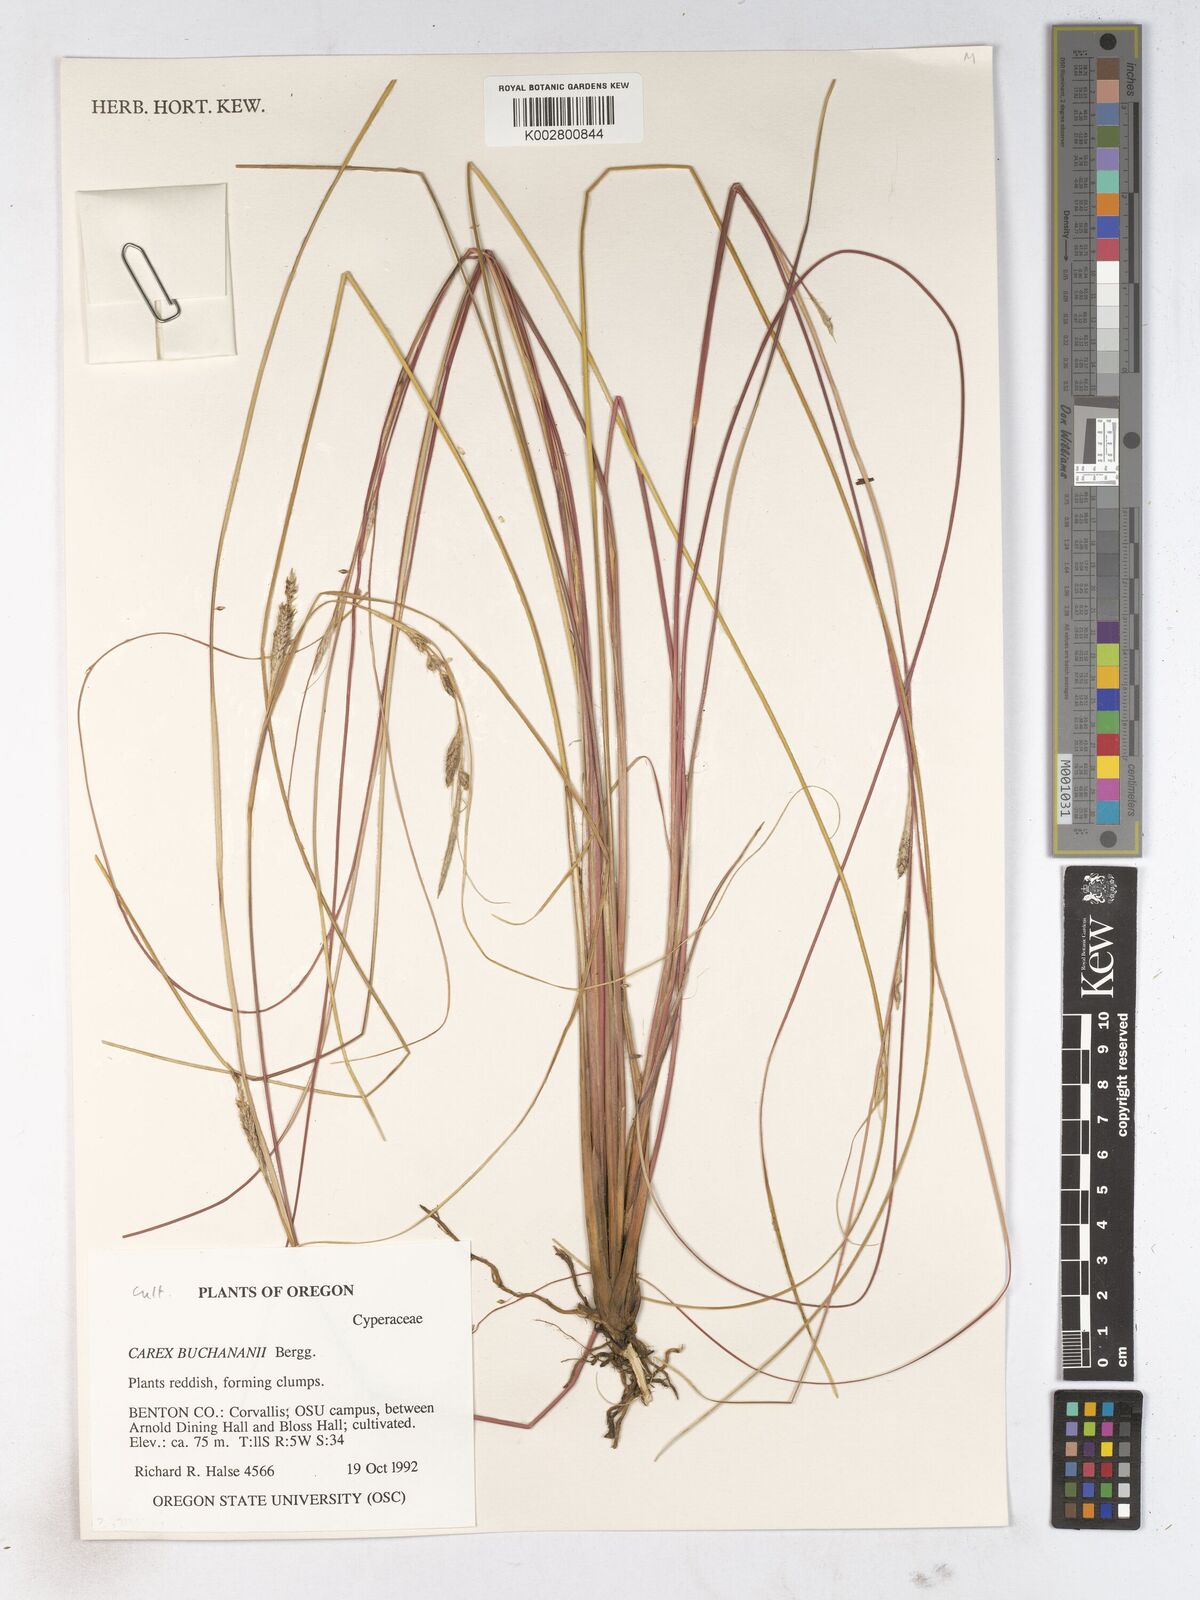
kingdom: Plantae
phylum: Tracheophyta
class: Liliopsida
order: Poales
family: Cyperaceae
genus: Carex
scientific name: Carex breviculmis
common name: Asian shortstem sedge
